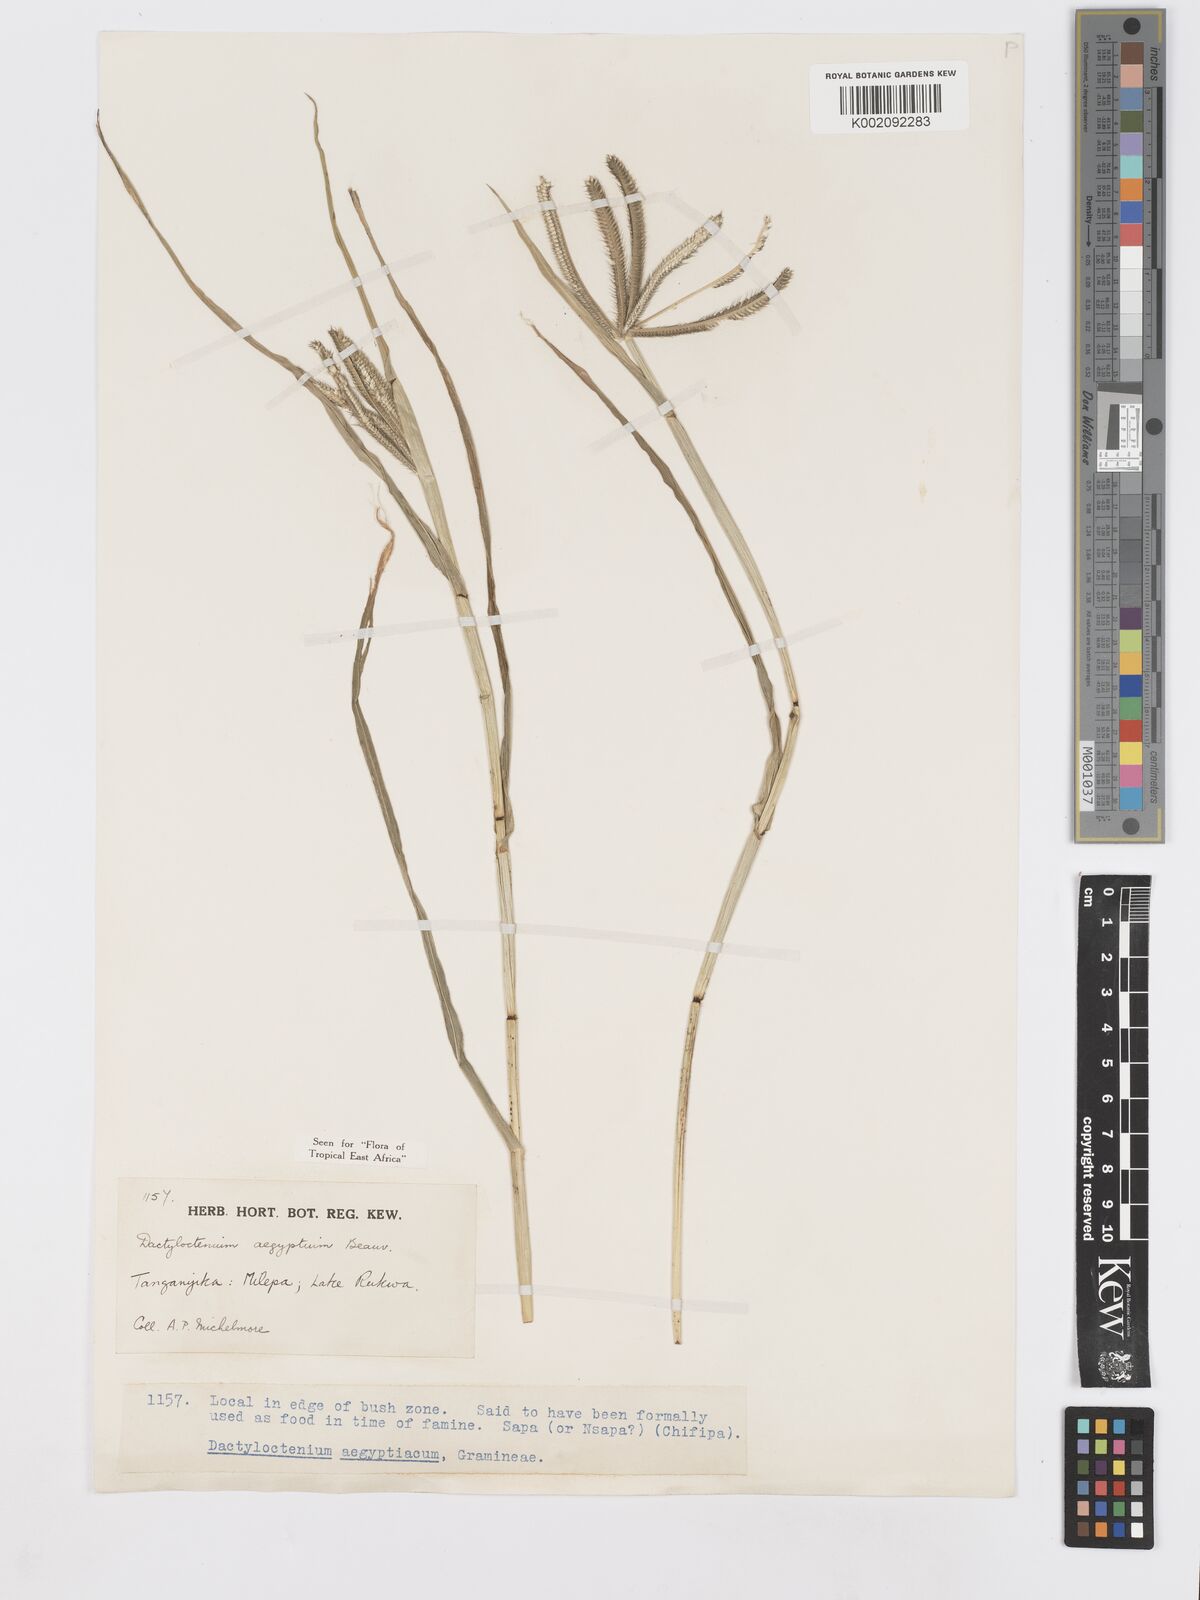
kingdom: Plantae
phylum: Tracheophyta
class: Liliopsida
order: Poales
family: Poaceae
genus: Dactyloctenium
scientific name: Dactyloctenium aegyptium
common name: Egyptian grass
